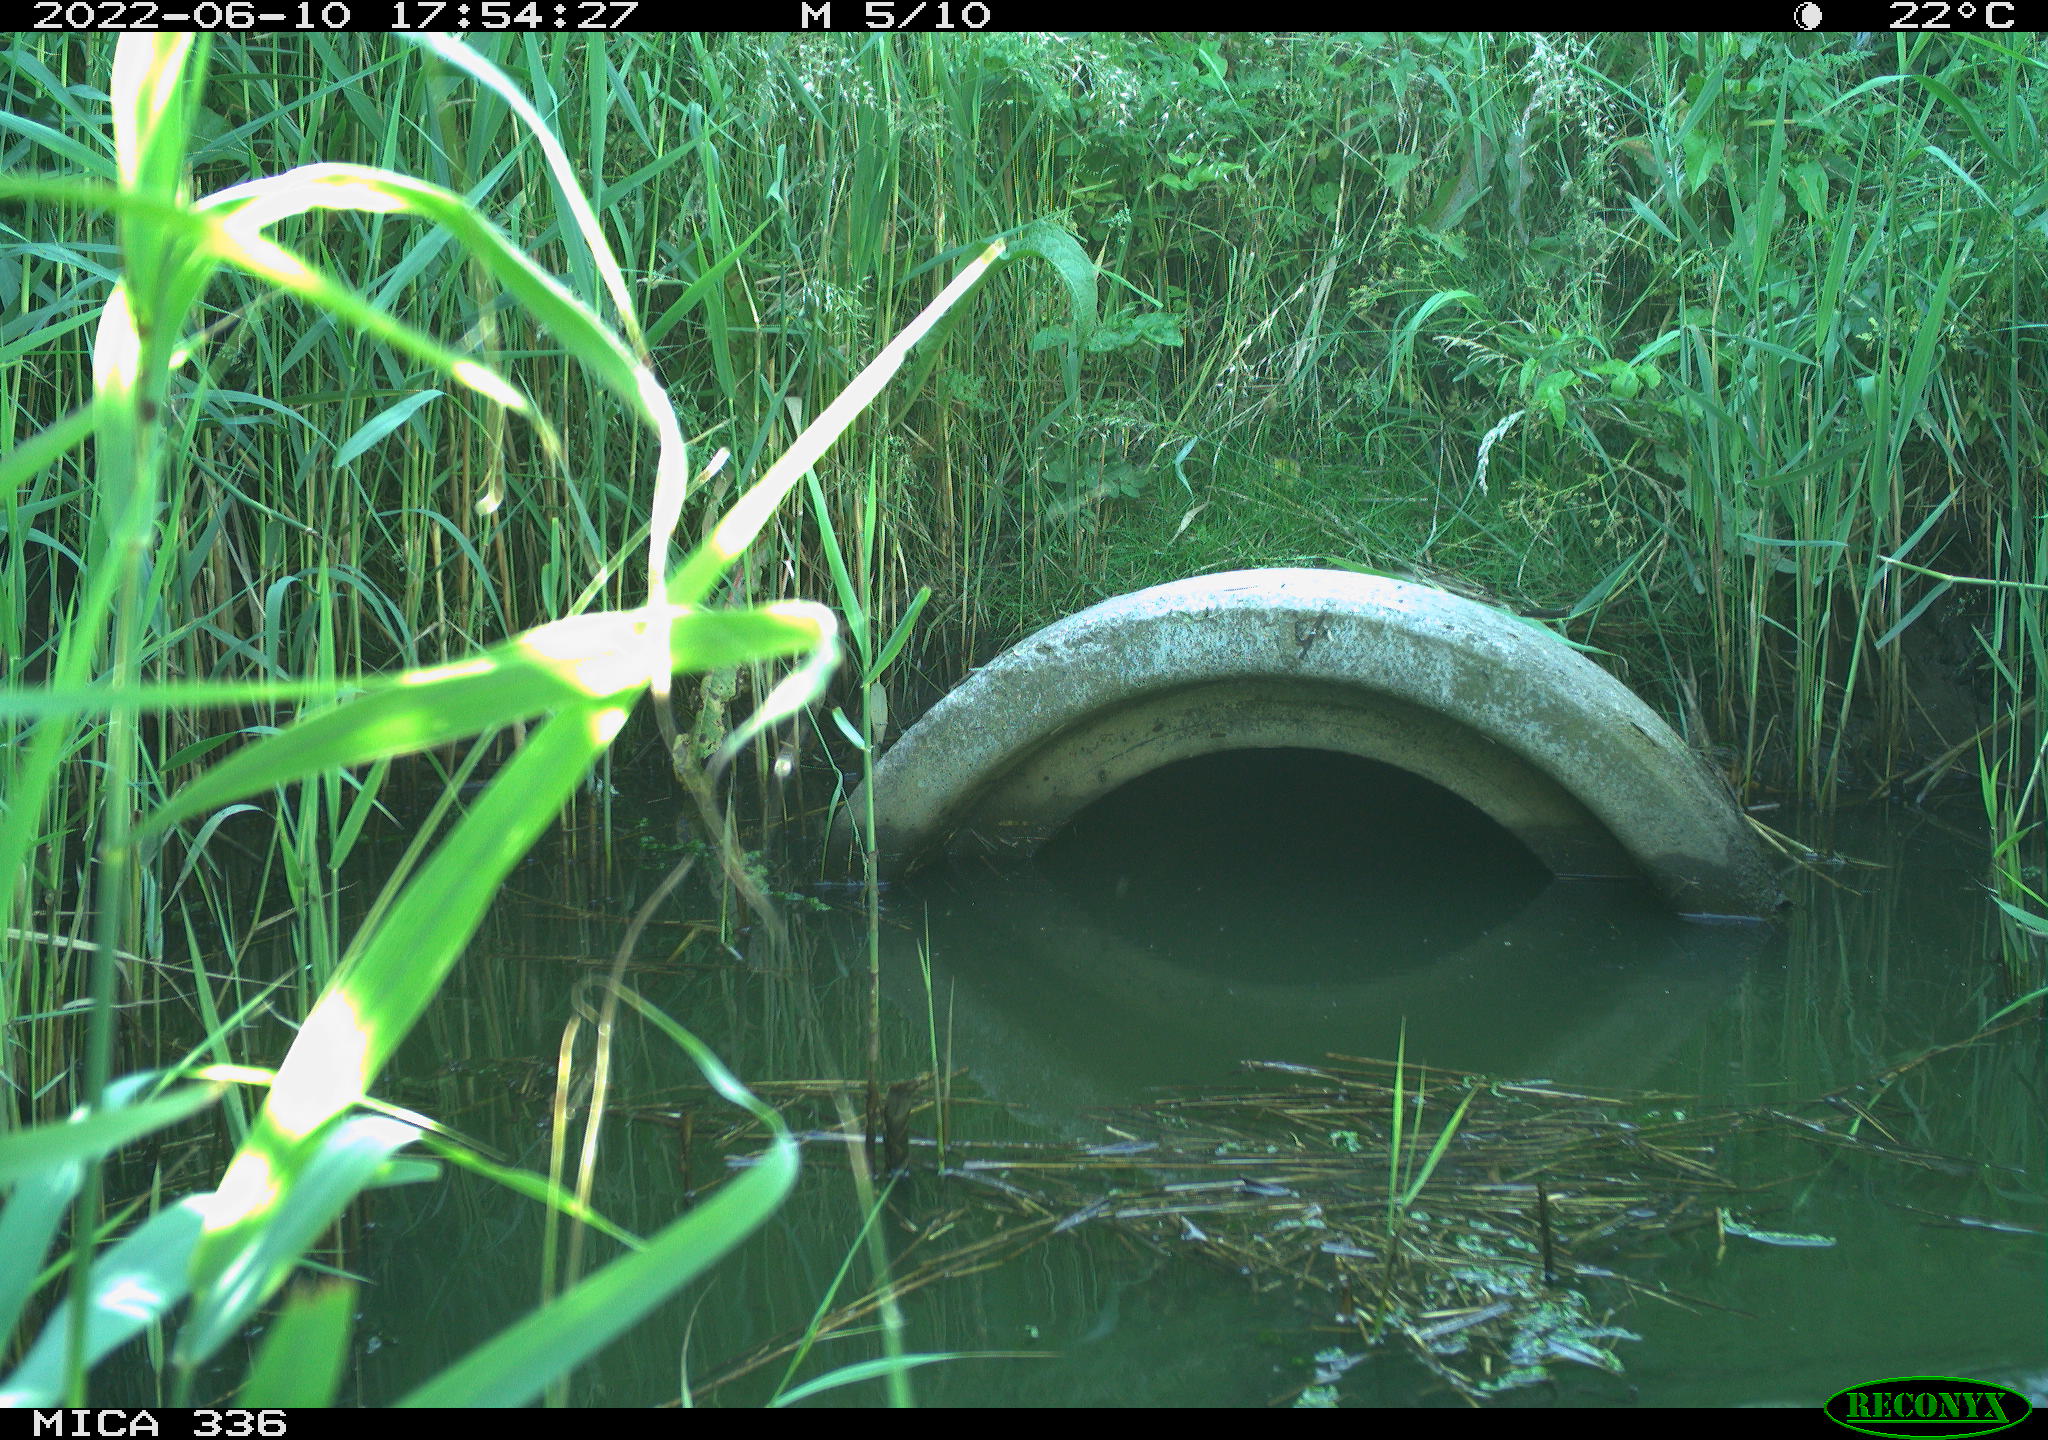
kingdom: Animalia
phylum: Chordata
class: Aves
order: Pelecaniformes
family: Ardeidae
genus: Ardea
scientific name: Ardea
